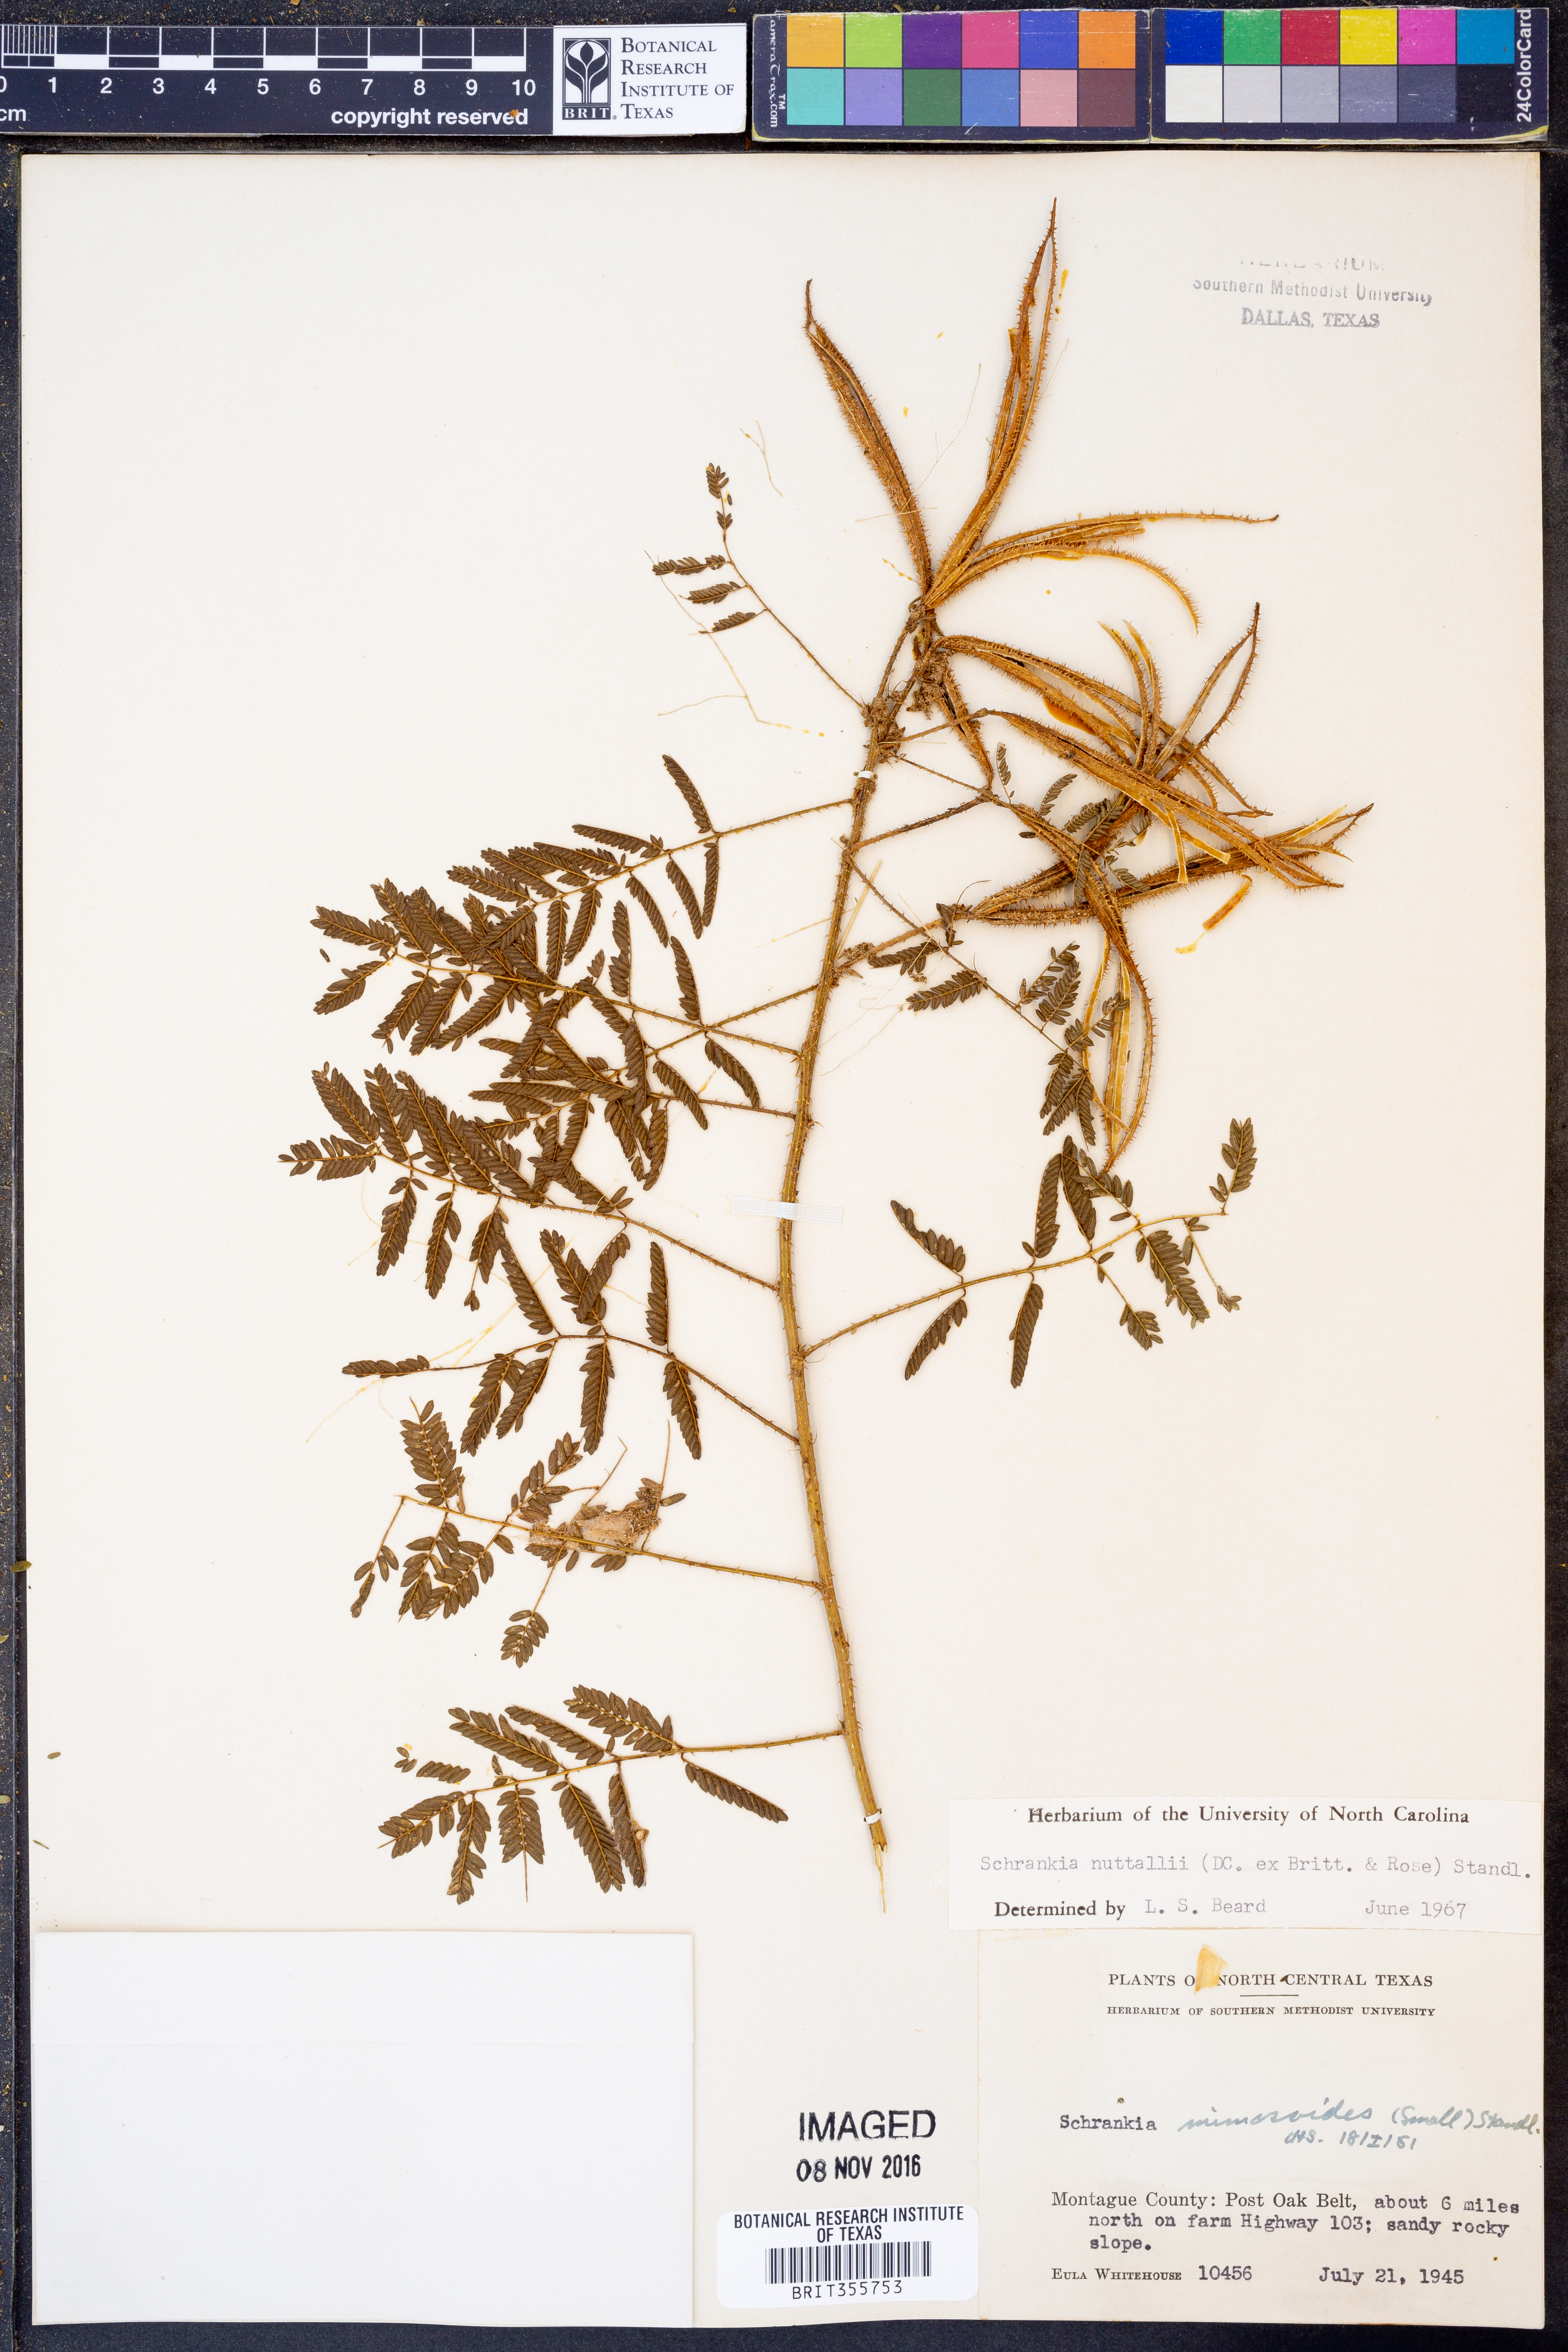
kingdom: Plantae
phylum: Tracheophyta
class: Magnoliopsida
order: Fabales
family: Fabaceae
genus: Mimosa
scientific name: Mimosa quadrivalvis
